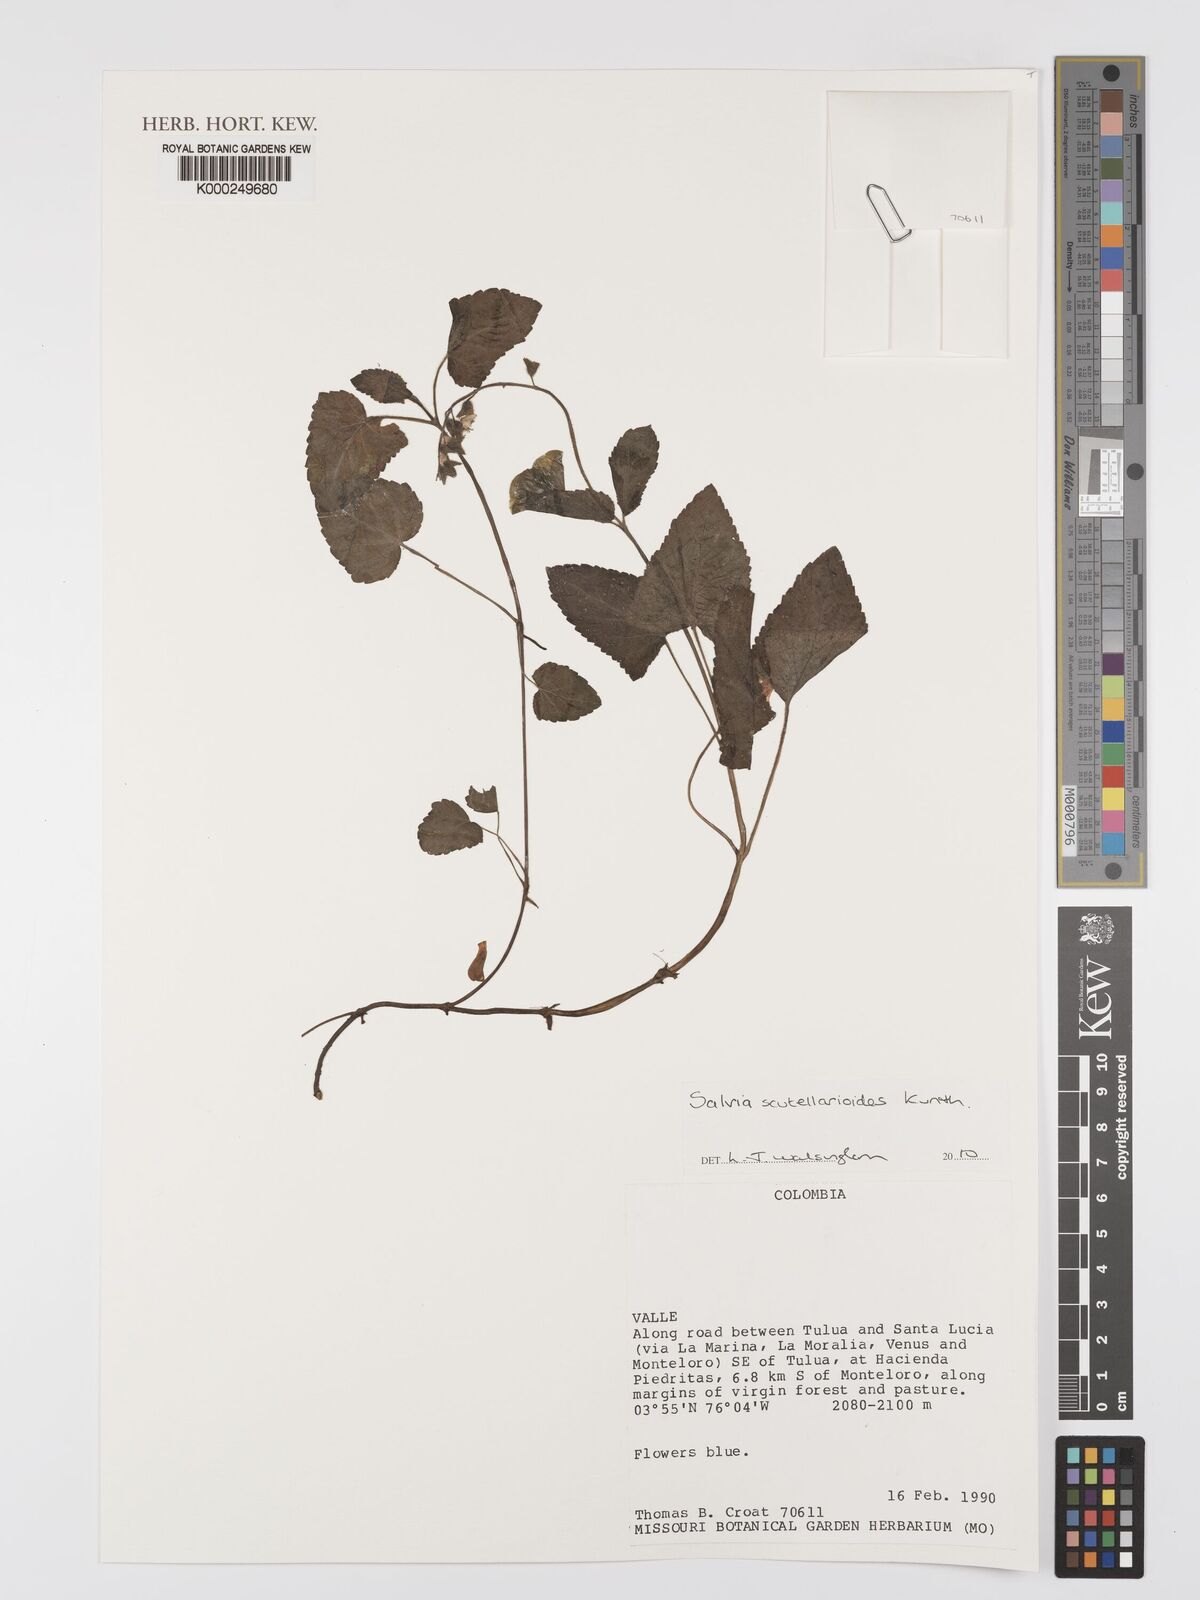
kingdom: Plantae
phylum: Tracheophyta
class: Magnoliopsida
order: Lamiales
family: Lamiaceae
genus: Salvia
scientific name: Salvia scutellarioides
